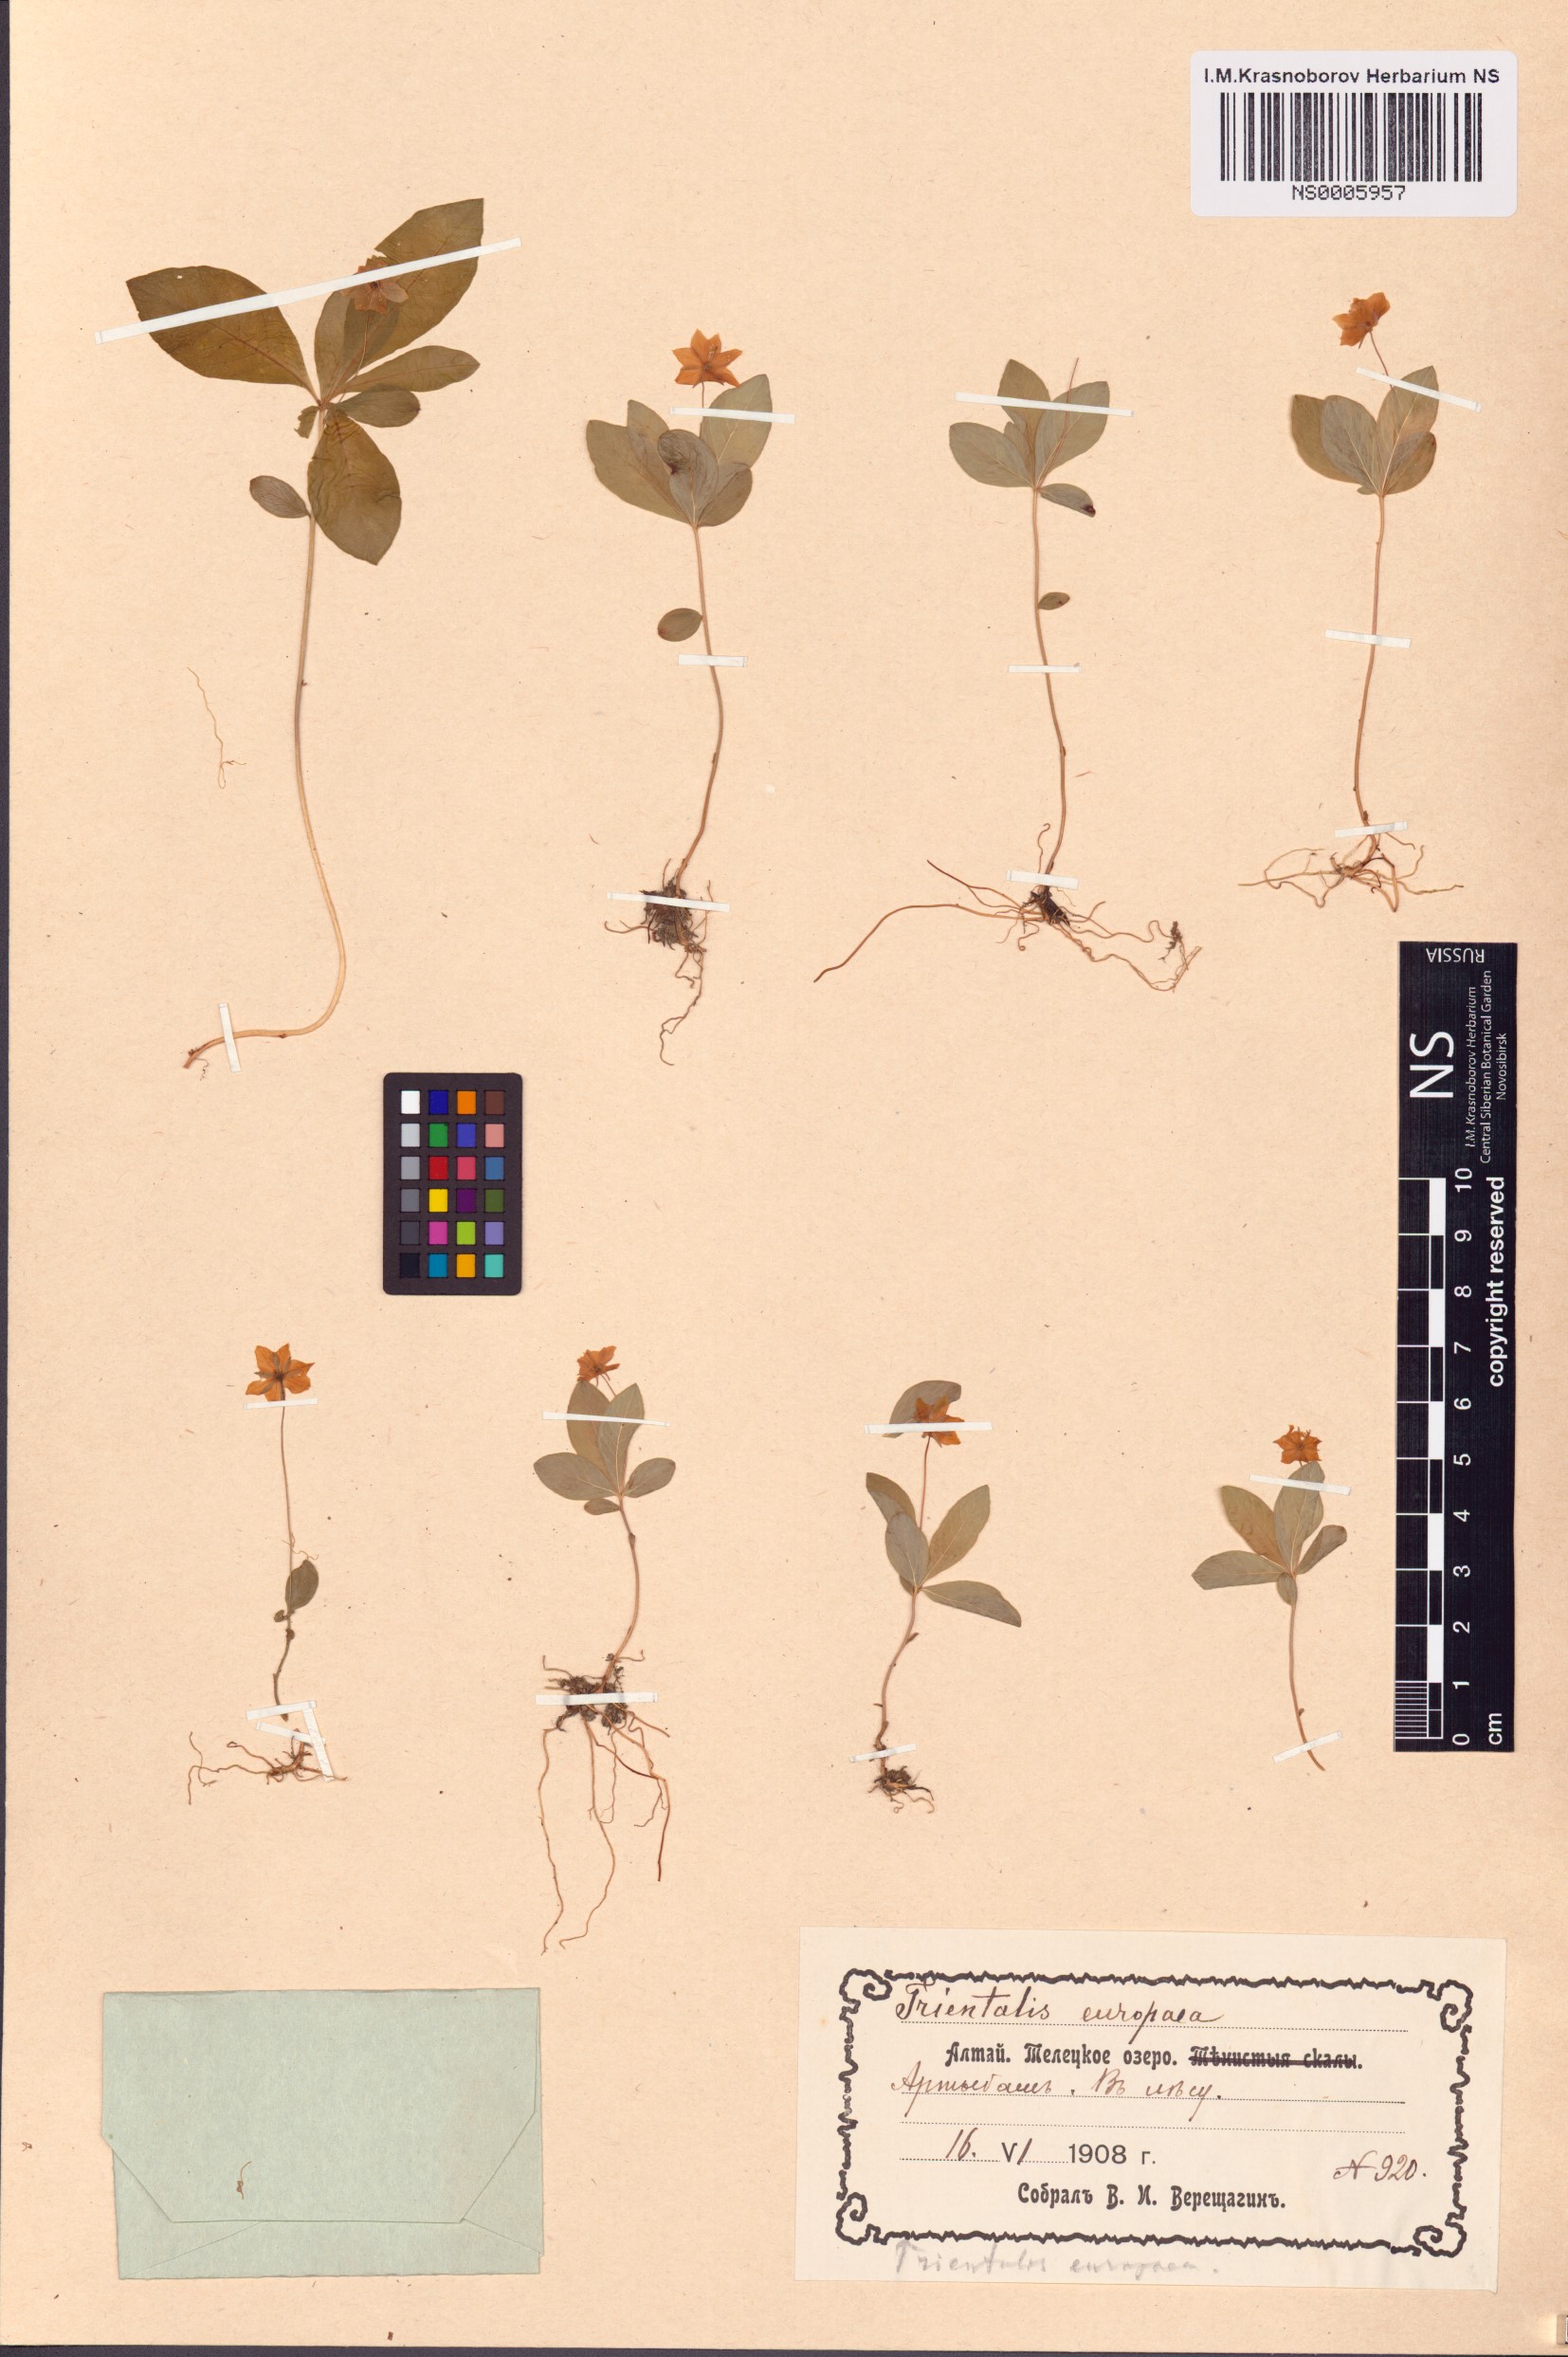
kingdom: Plantae
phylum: Tracheophyta
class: Magnoliopsida
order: Ericales
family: Primulaceae
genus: Lysimachia
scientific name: Lysimachia europaea
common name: Arctic starflower
